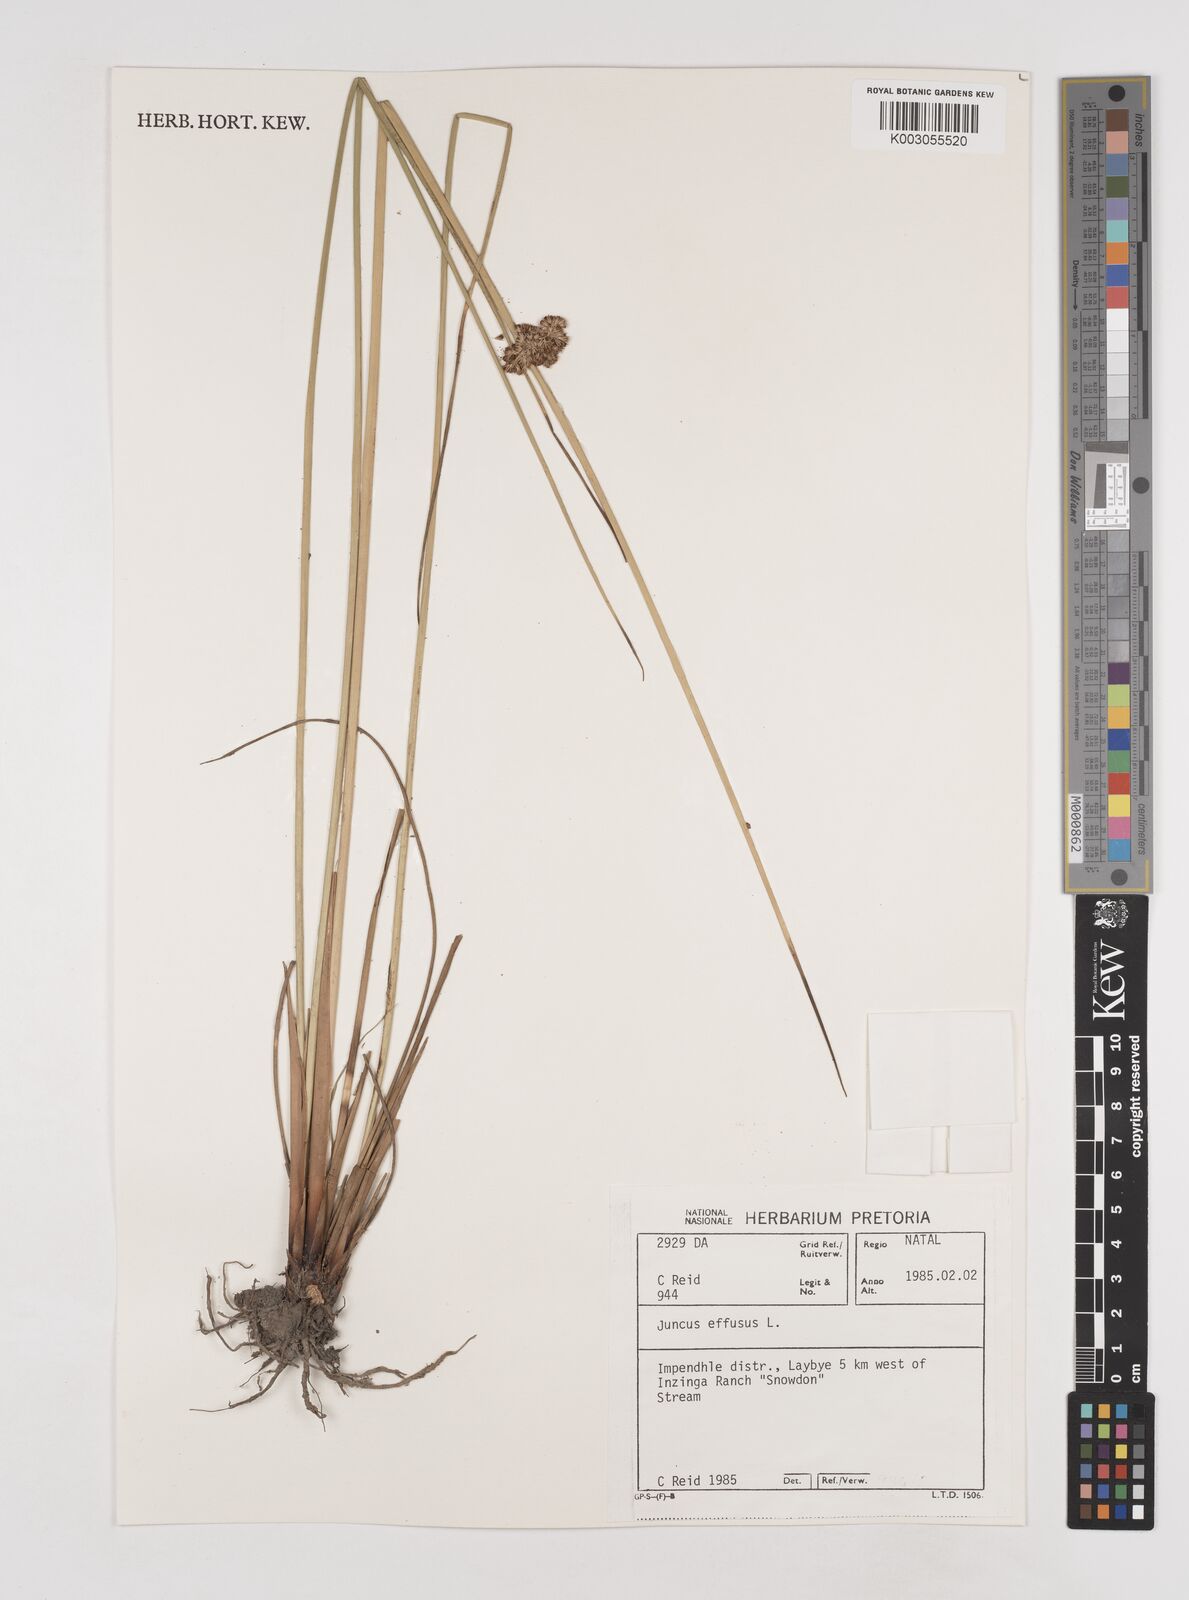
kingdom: Plantae
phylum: Tracheophyta
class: Liliopsida
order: Poales
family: Juncaceae
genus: Juncus
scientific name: Juncus effusus
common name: Soft rush
